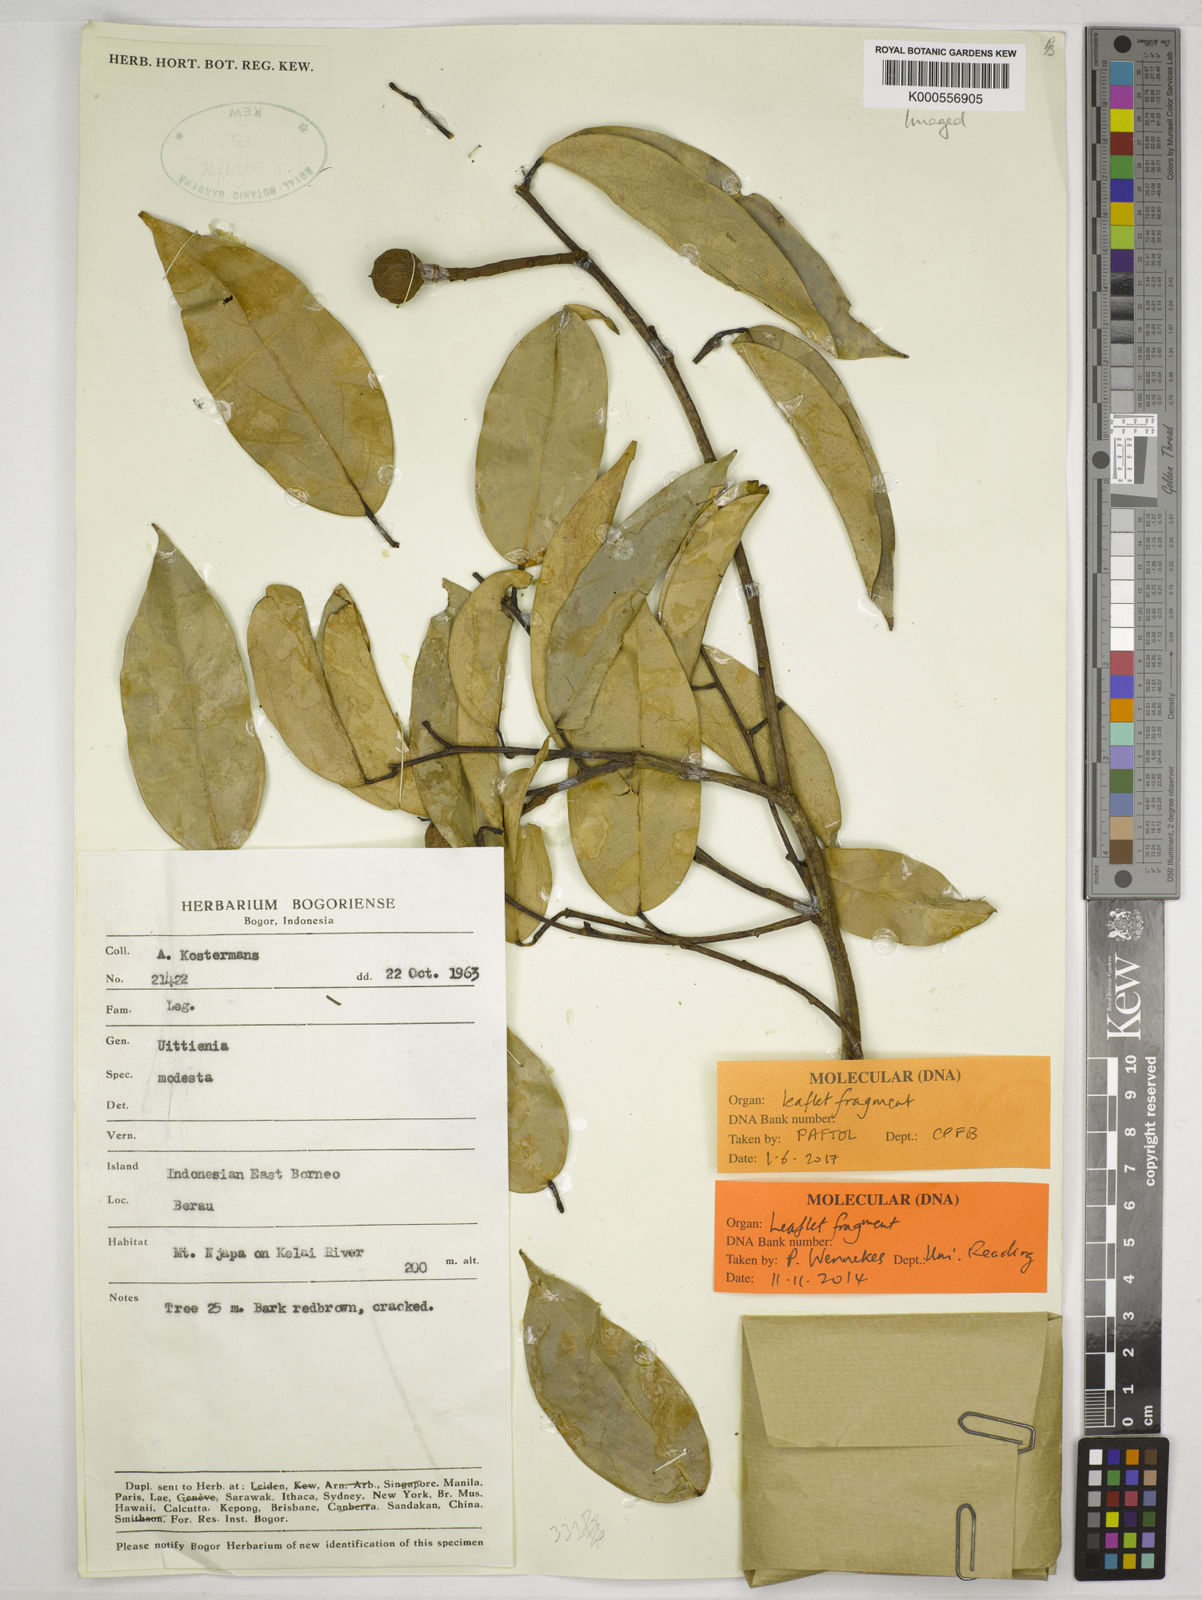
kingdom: Plantae
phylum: Tracheophyta
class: Magnoliopsida
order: Fabales
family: Fabaceae
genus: Uittienia
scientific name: Uittienia modesta
